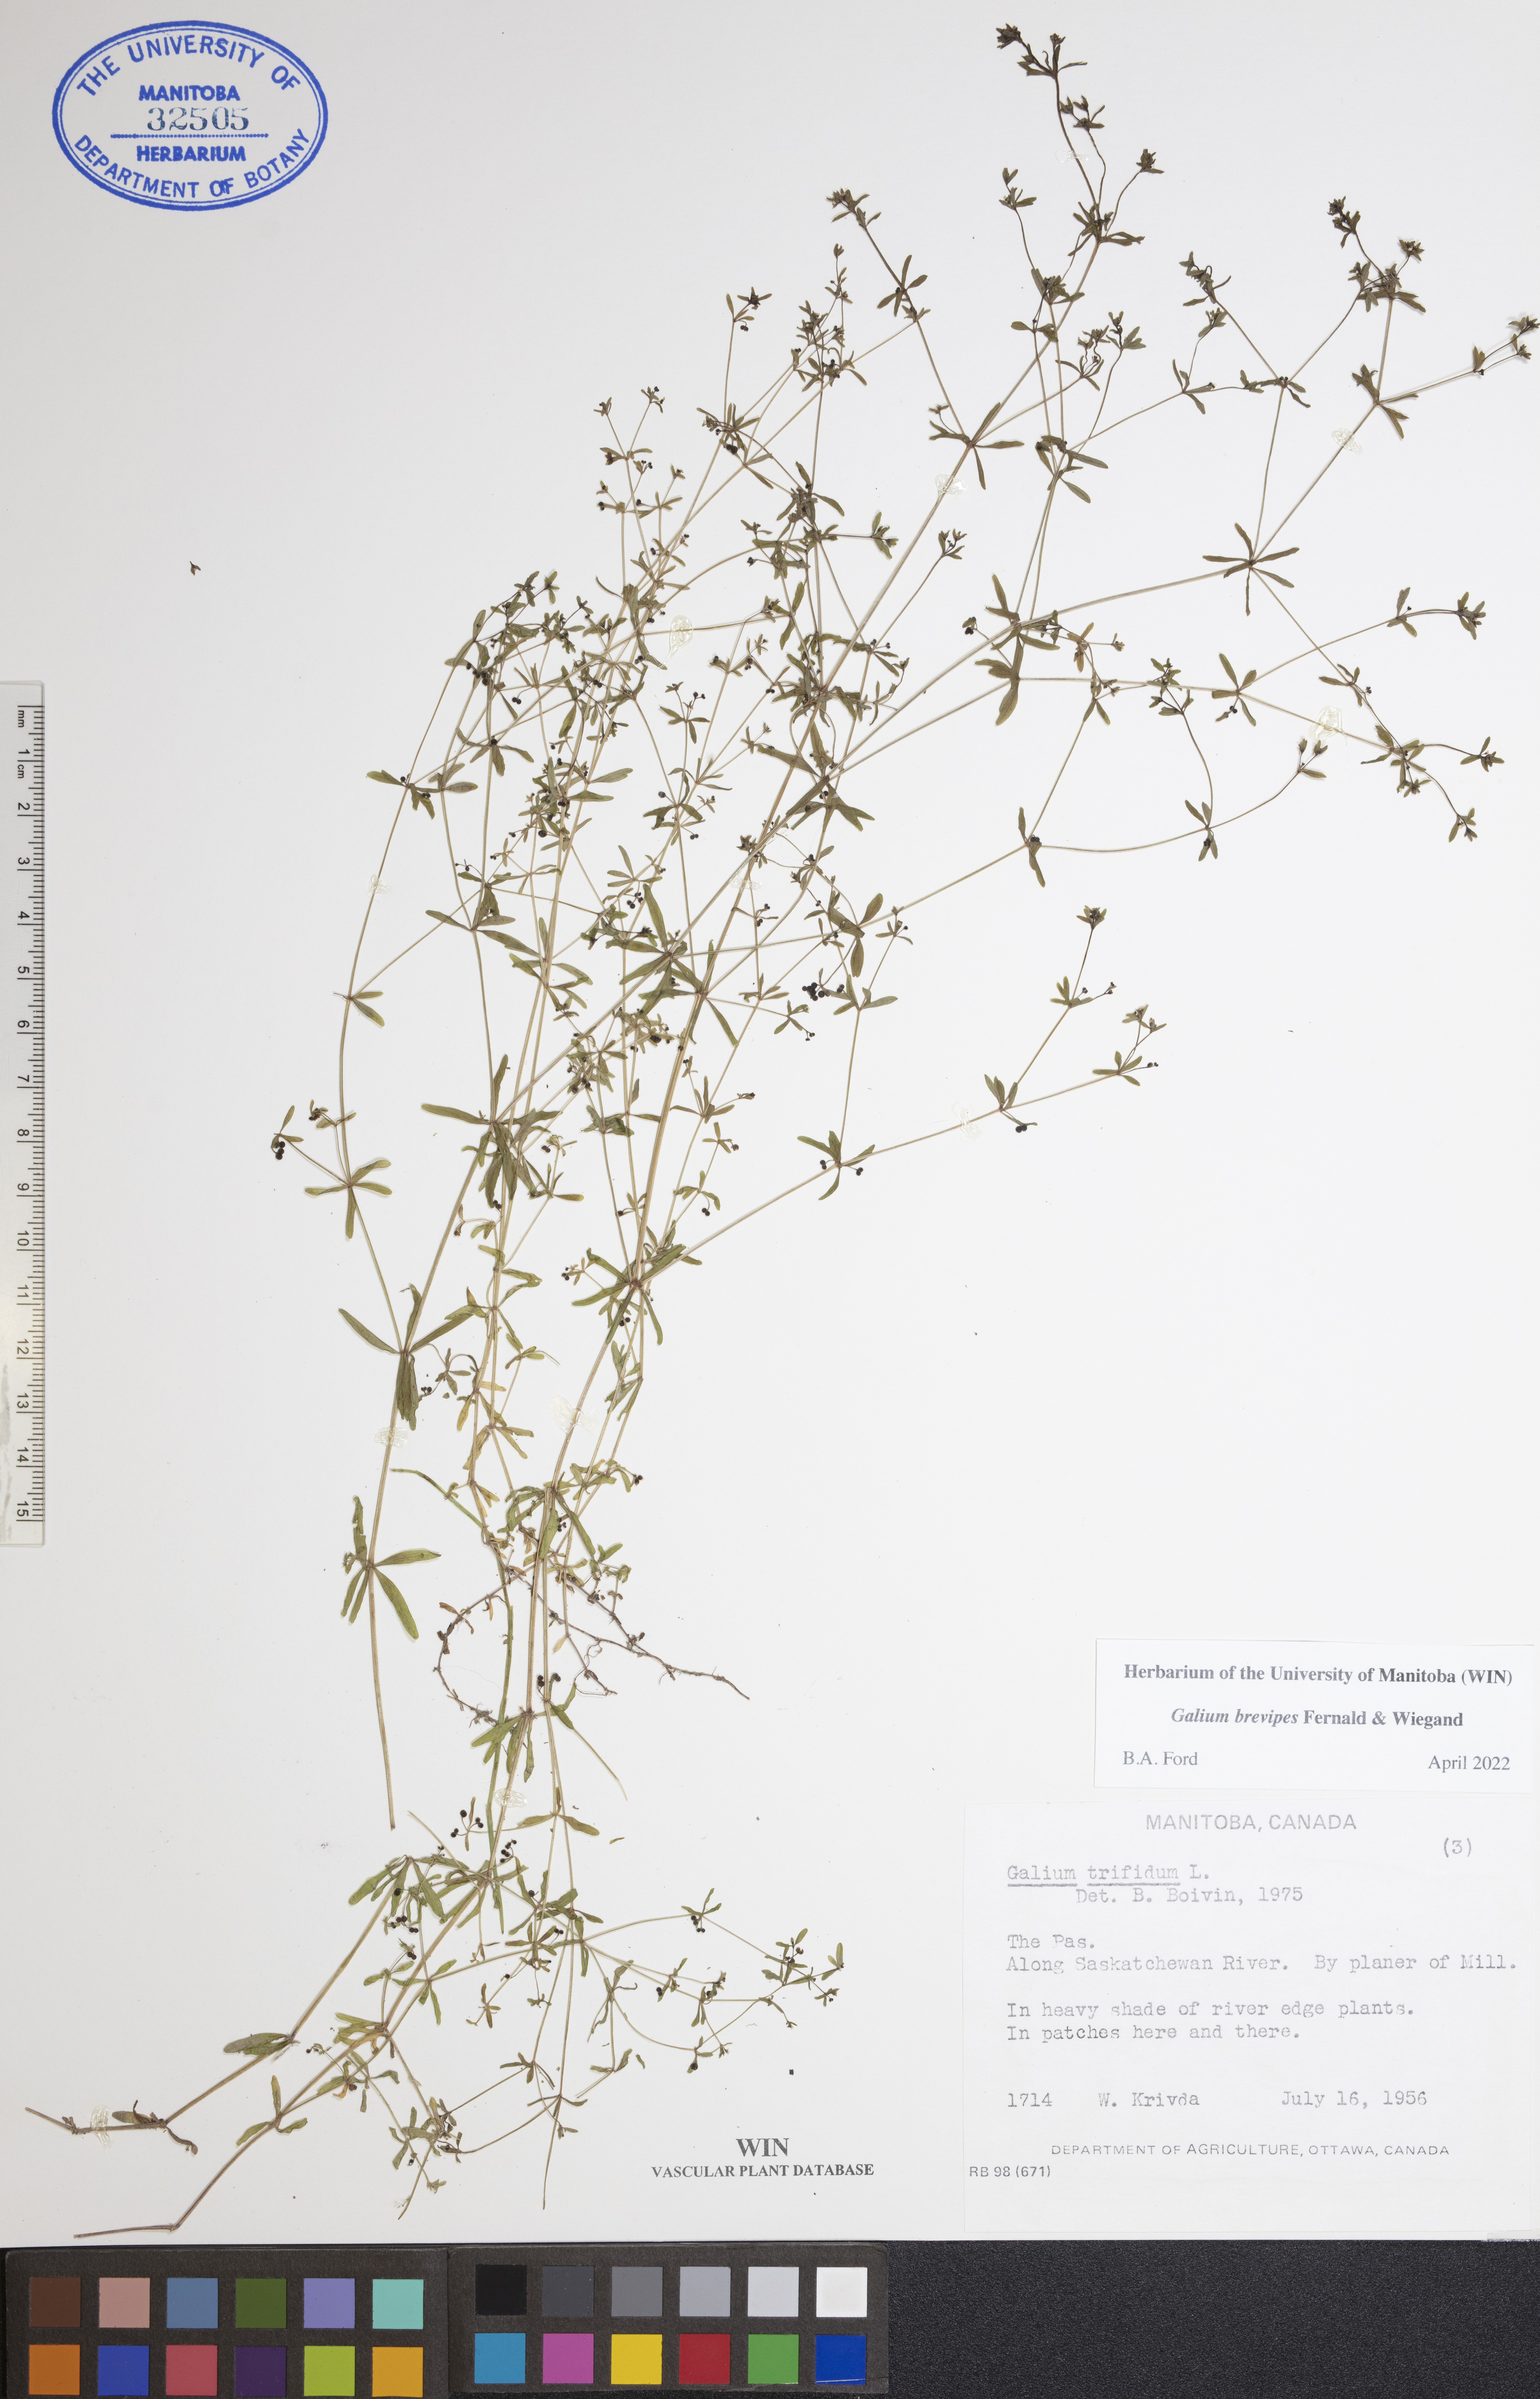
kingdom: Plantae
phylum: Tracheophyta
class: Magnoliopsida
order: Gentianales
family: Rubiaceae
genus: Galium
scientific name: Galium domingense
